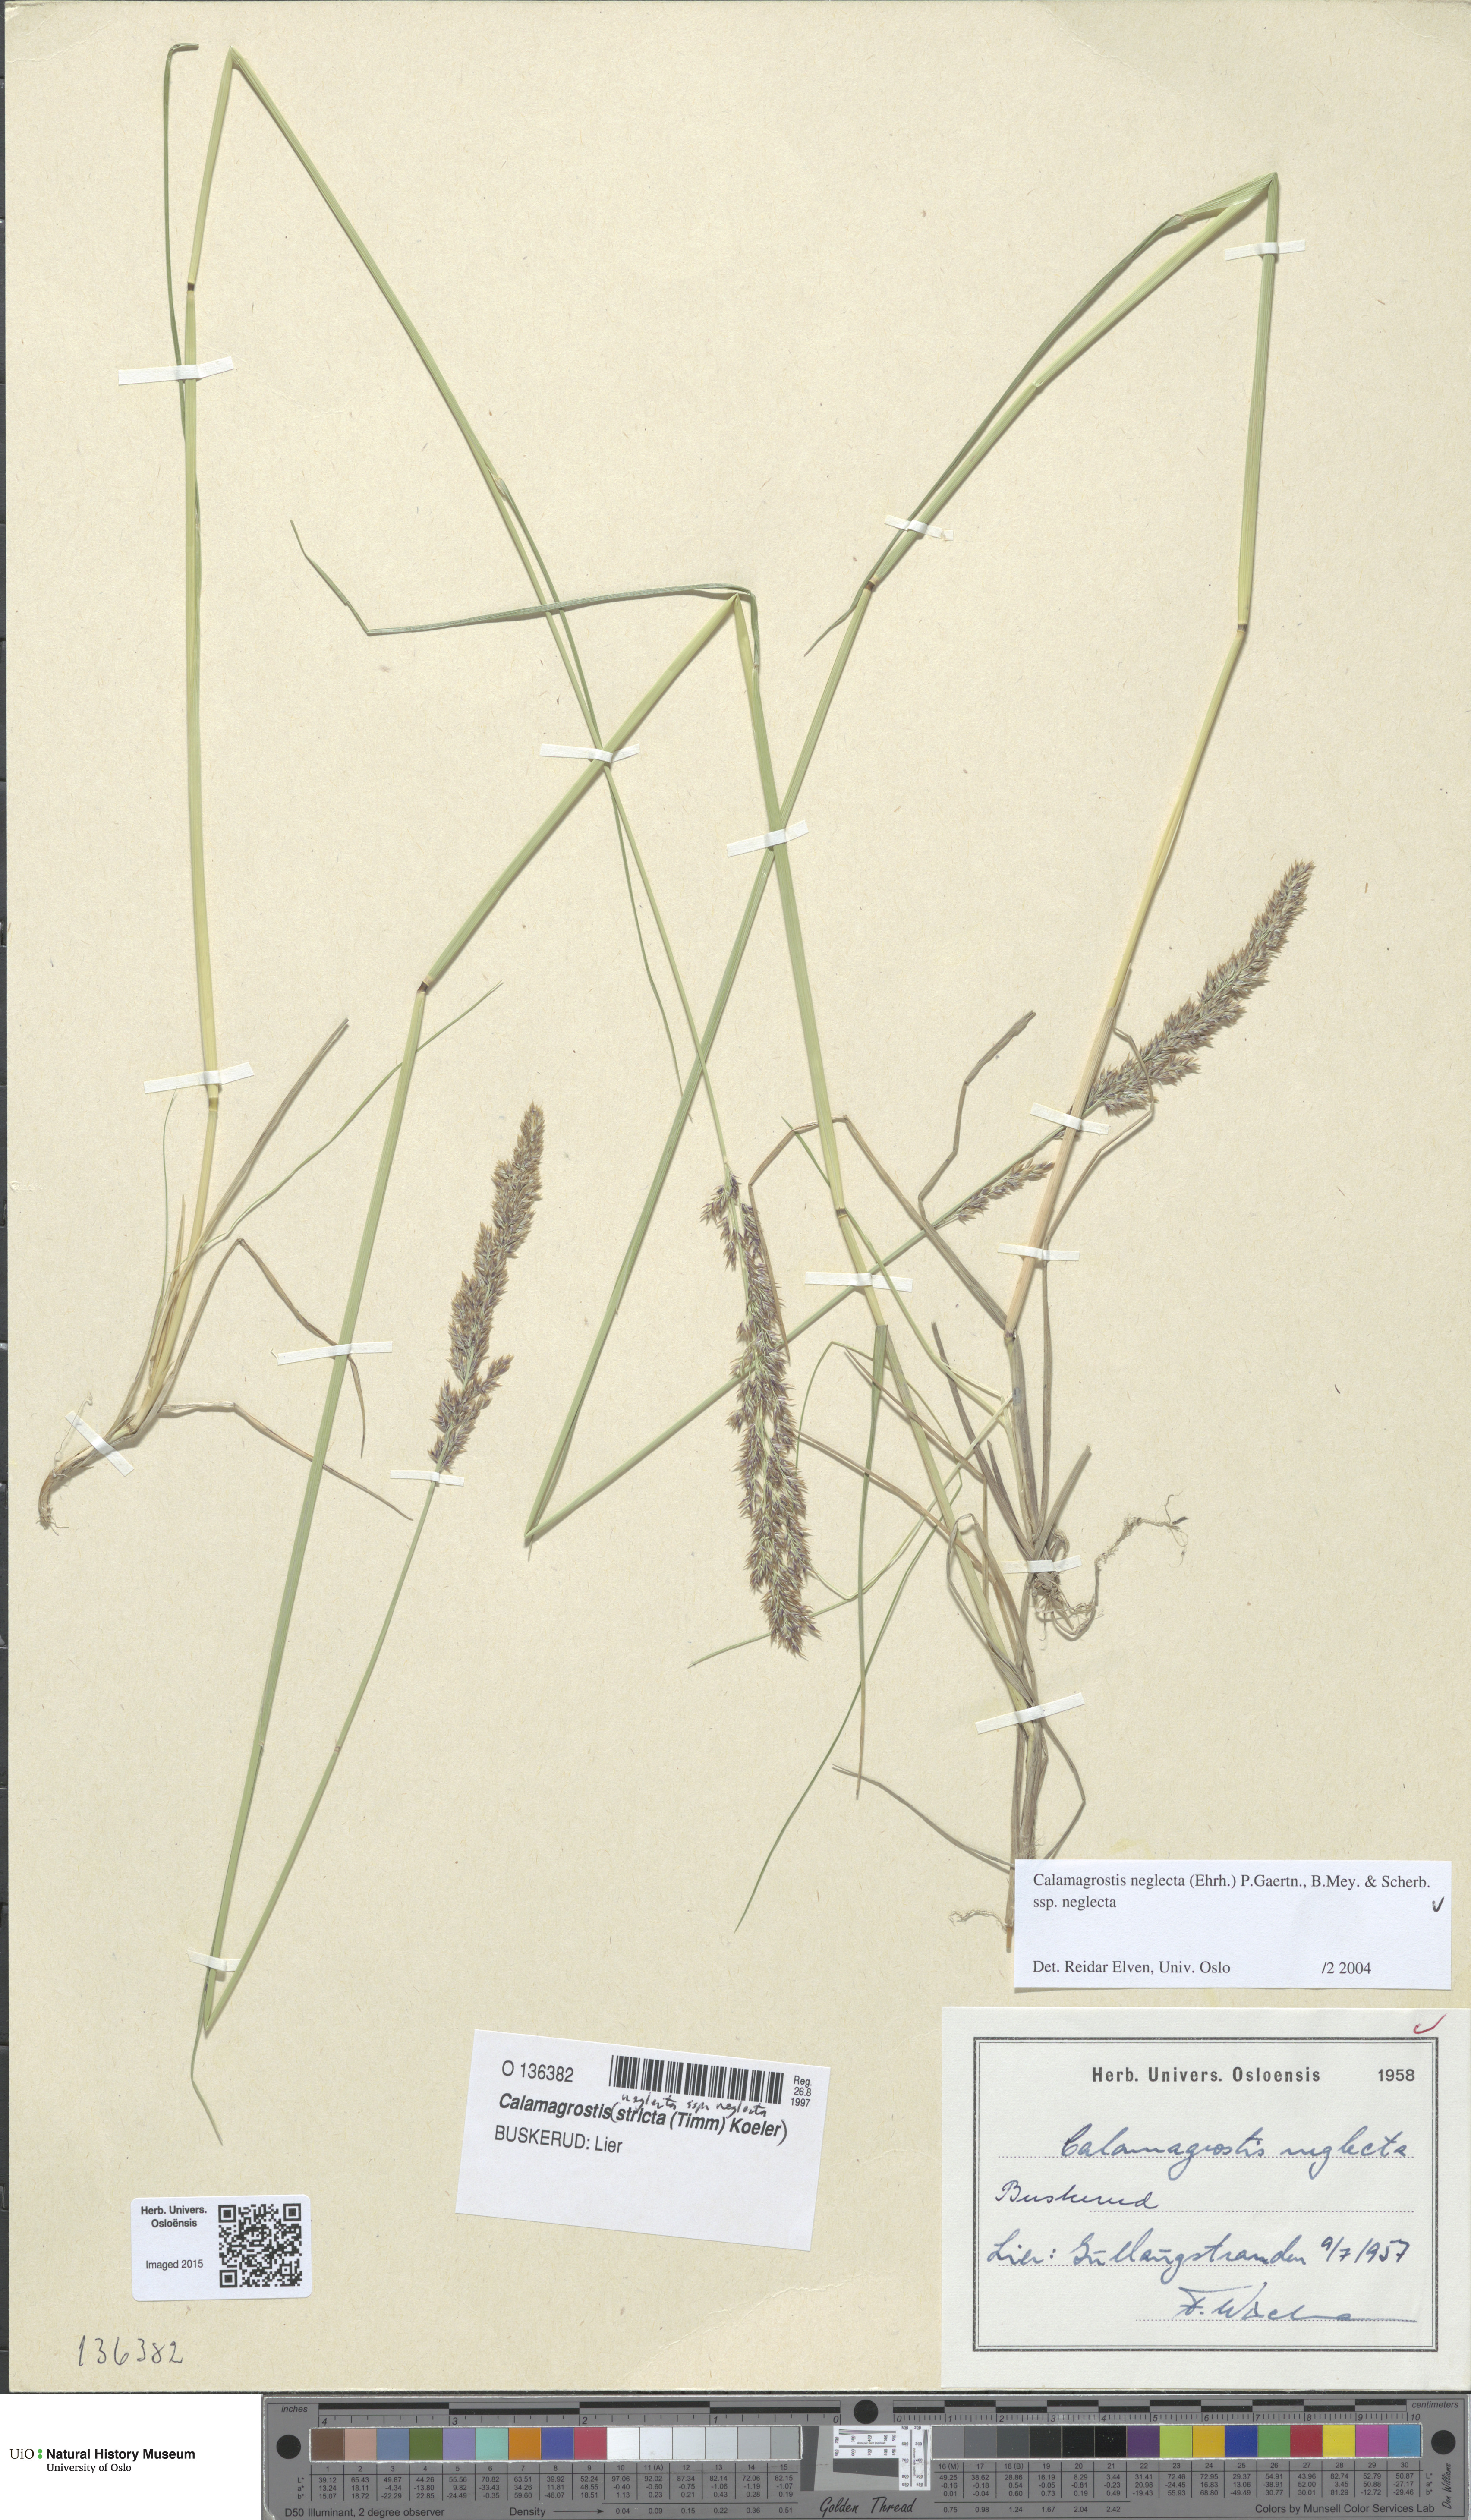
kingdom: Plantae
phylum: Tracheophyta
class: Liliopsida
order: Poales
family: Poaceae
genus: Achnatherum
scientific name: Achnatherum calamagrostis
